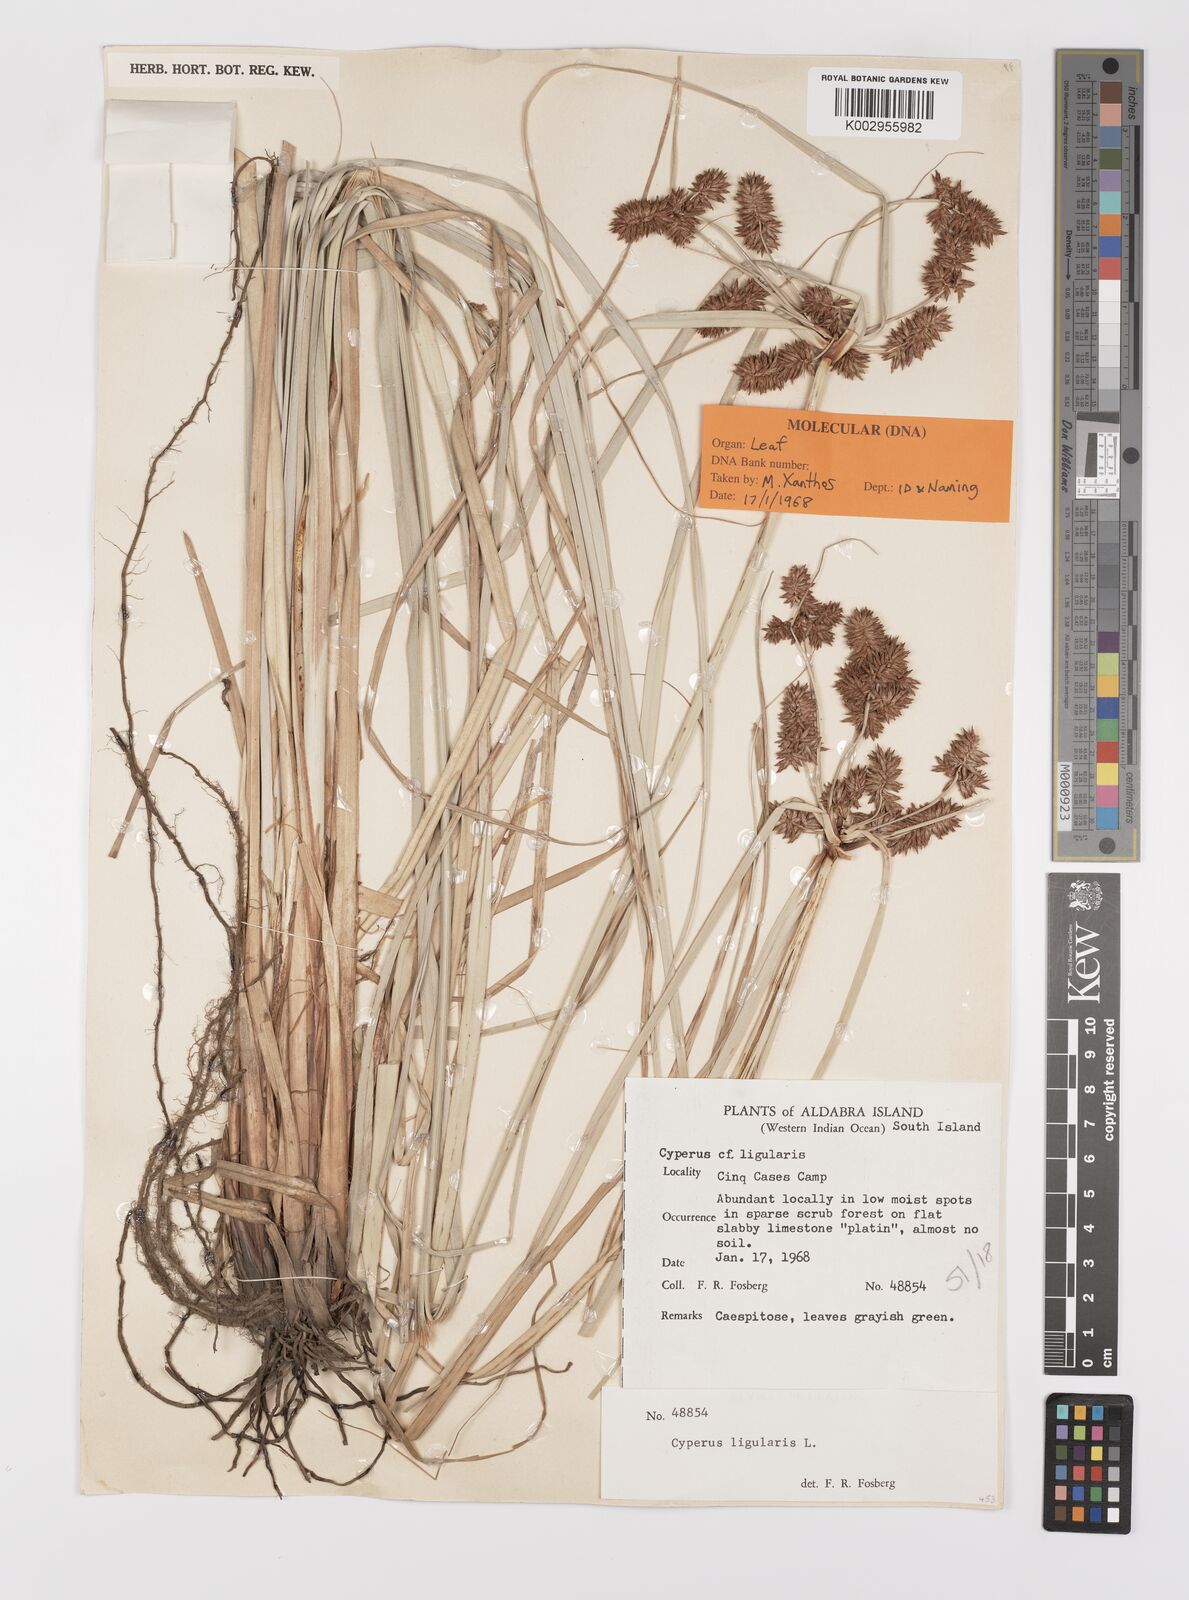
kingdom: Plantae
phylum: Tracheophyta
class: Liliopsida
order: Poales
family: Cyperaceae
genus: Cyperus
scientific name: Cyperus ligularis
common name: Swamp flat sedge
